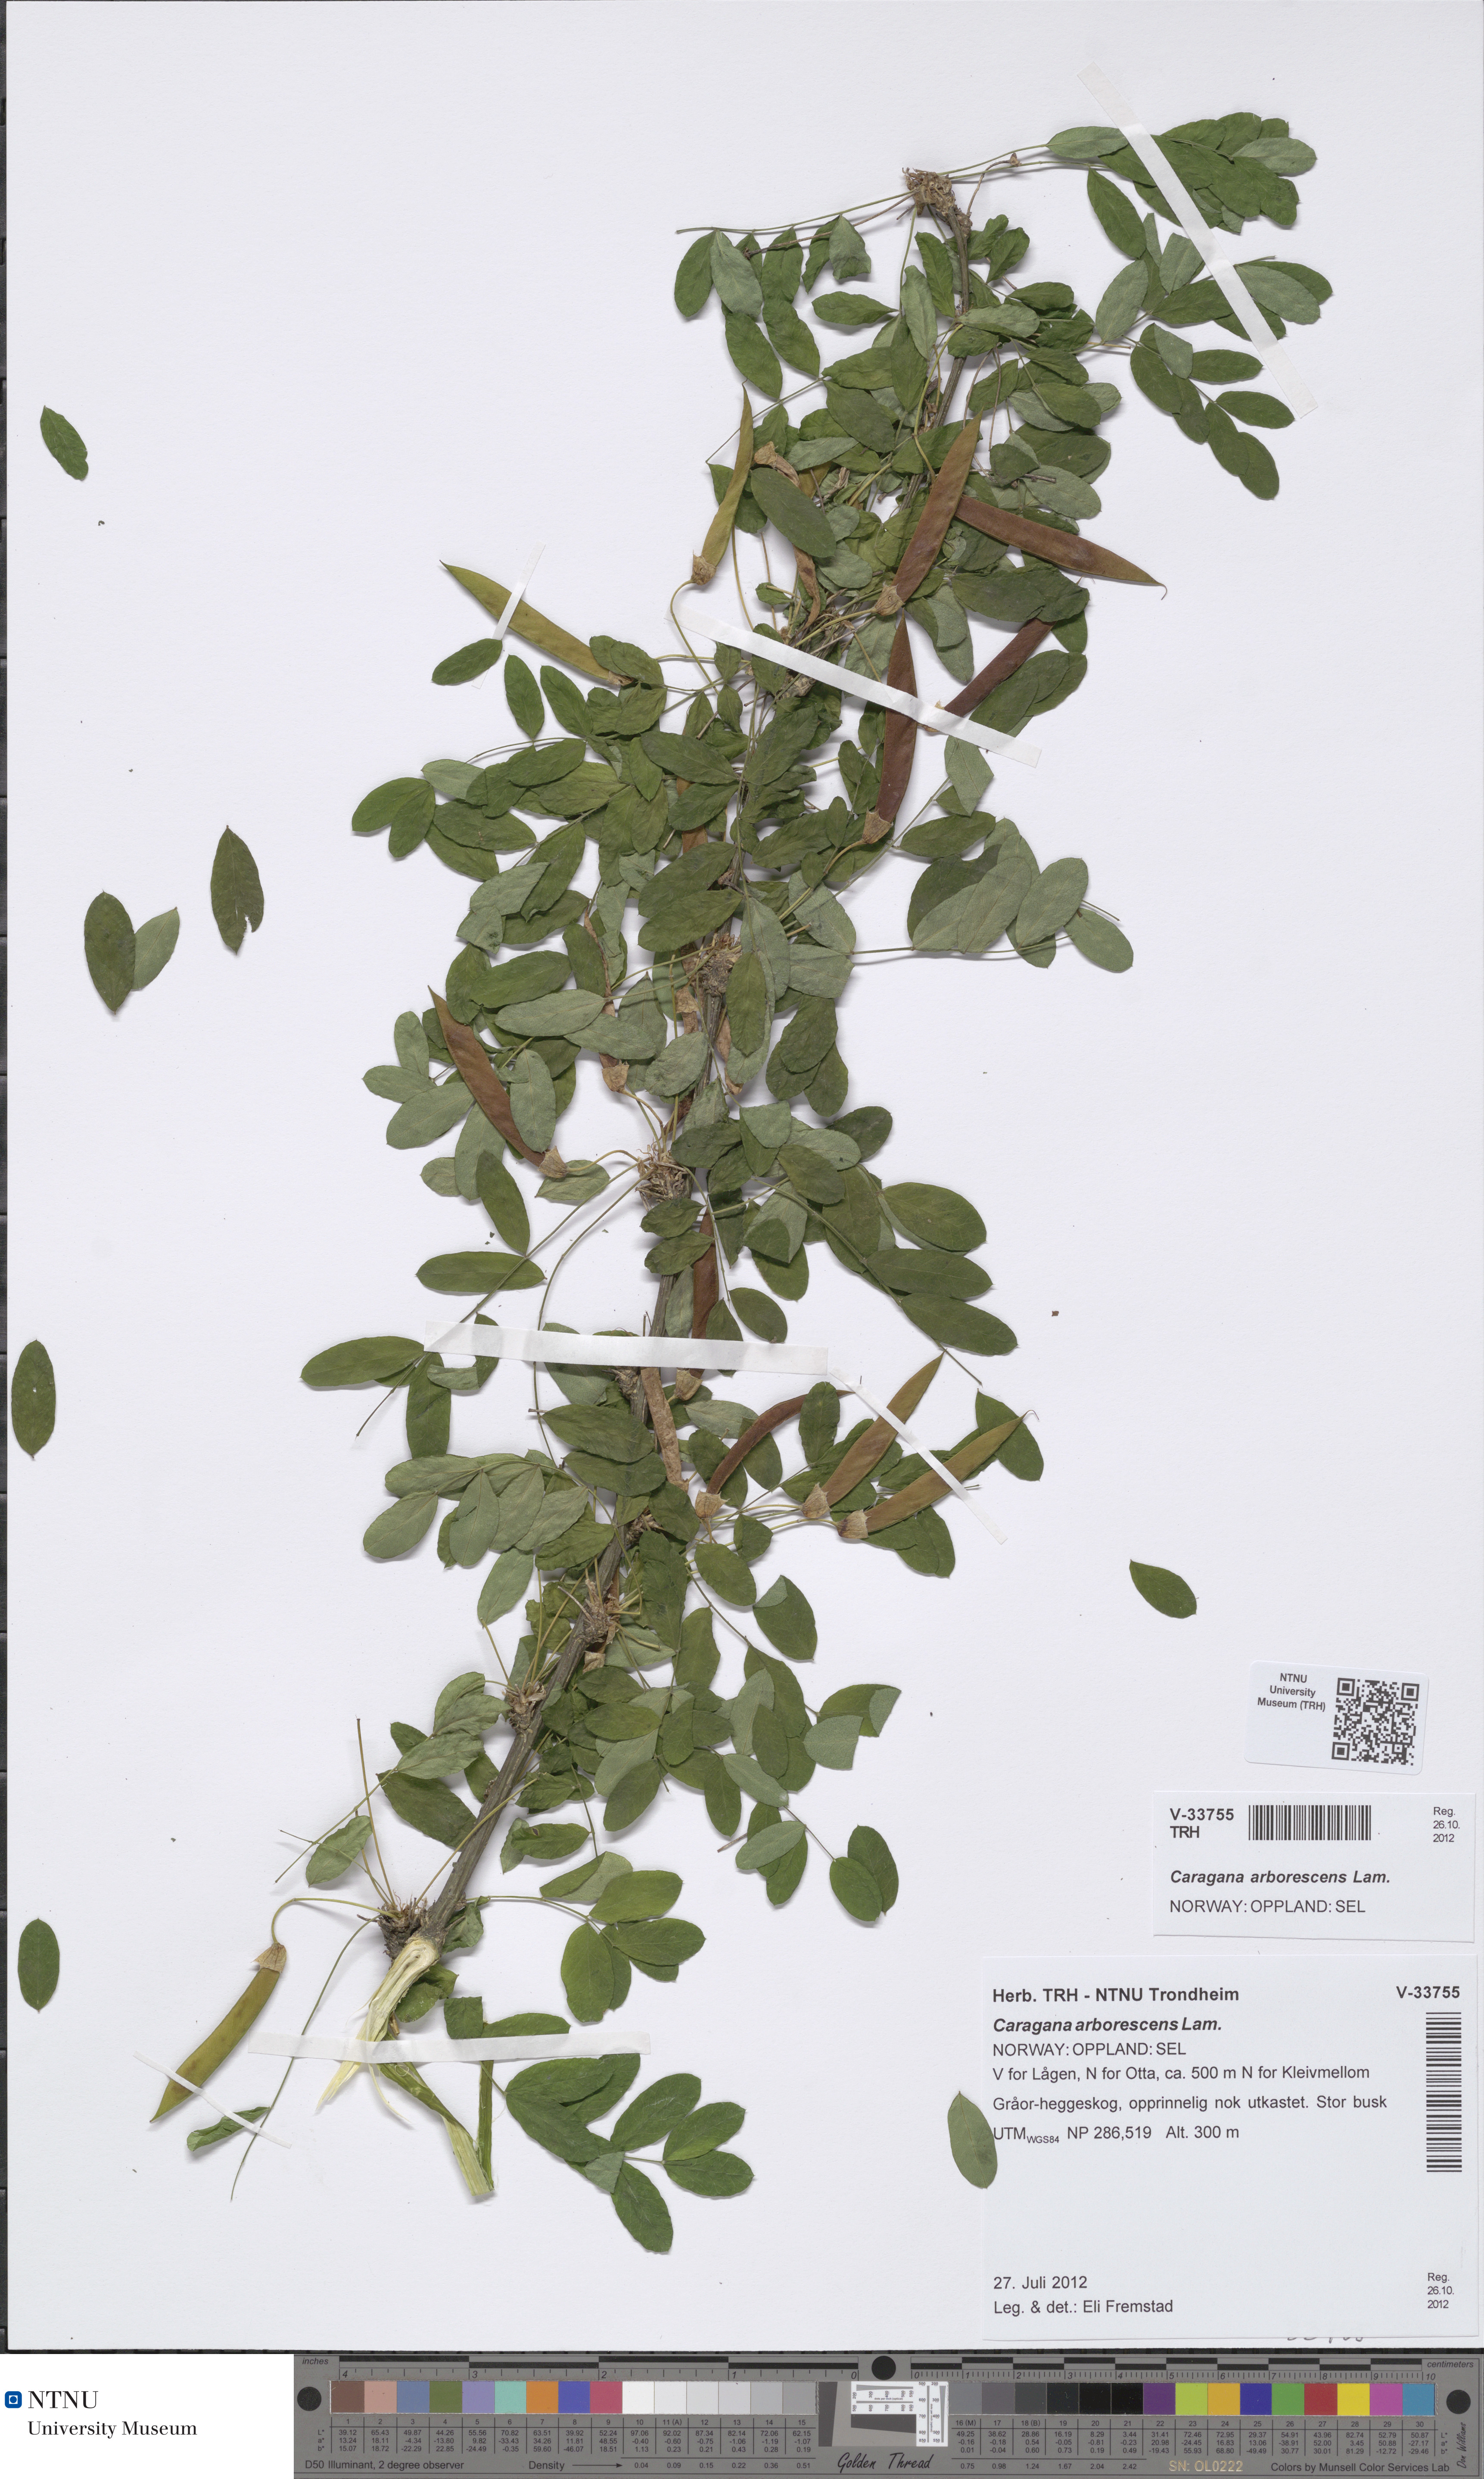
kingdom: Plantae
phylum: Tracheophyta
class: Magnoliopsida
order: Fabales
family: Fabaceae
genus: Caragana
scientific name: Caragana arborescens
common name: Siberian peashrub
